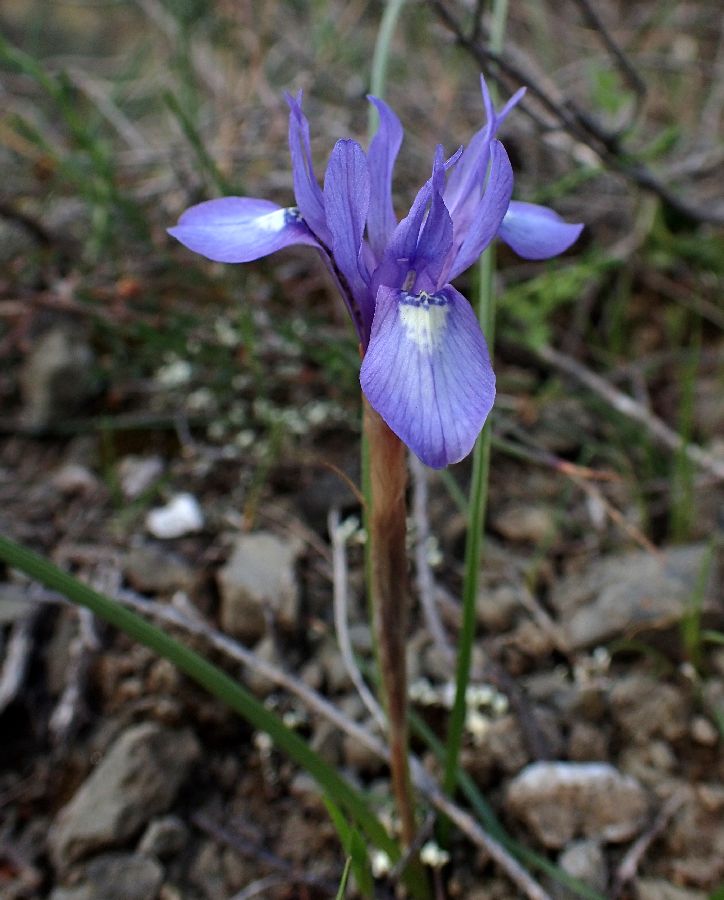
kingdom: Plantae
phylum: Tracheophyta
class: Liliopsida
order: Asparagales
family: Iridaceae
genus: Moraea
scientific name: Moraea sisyrinchium
